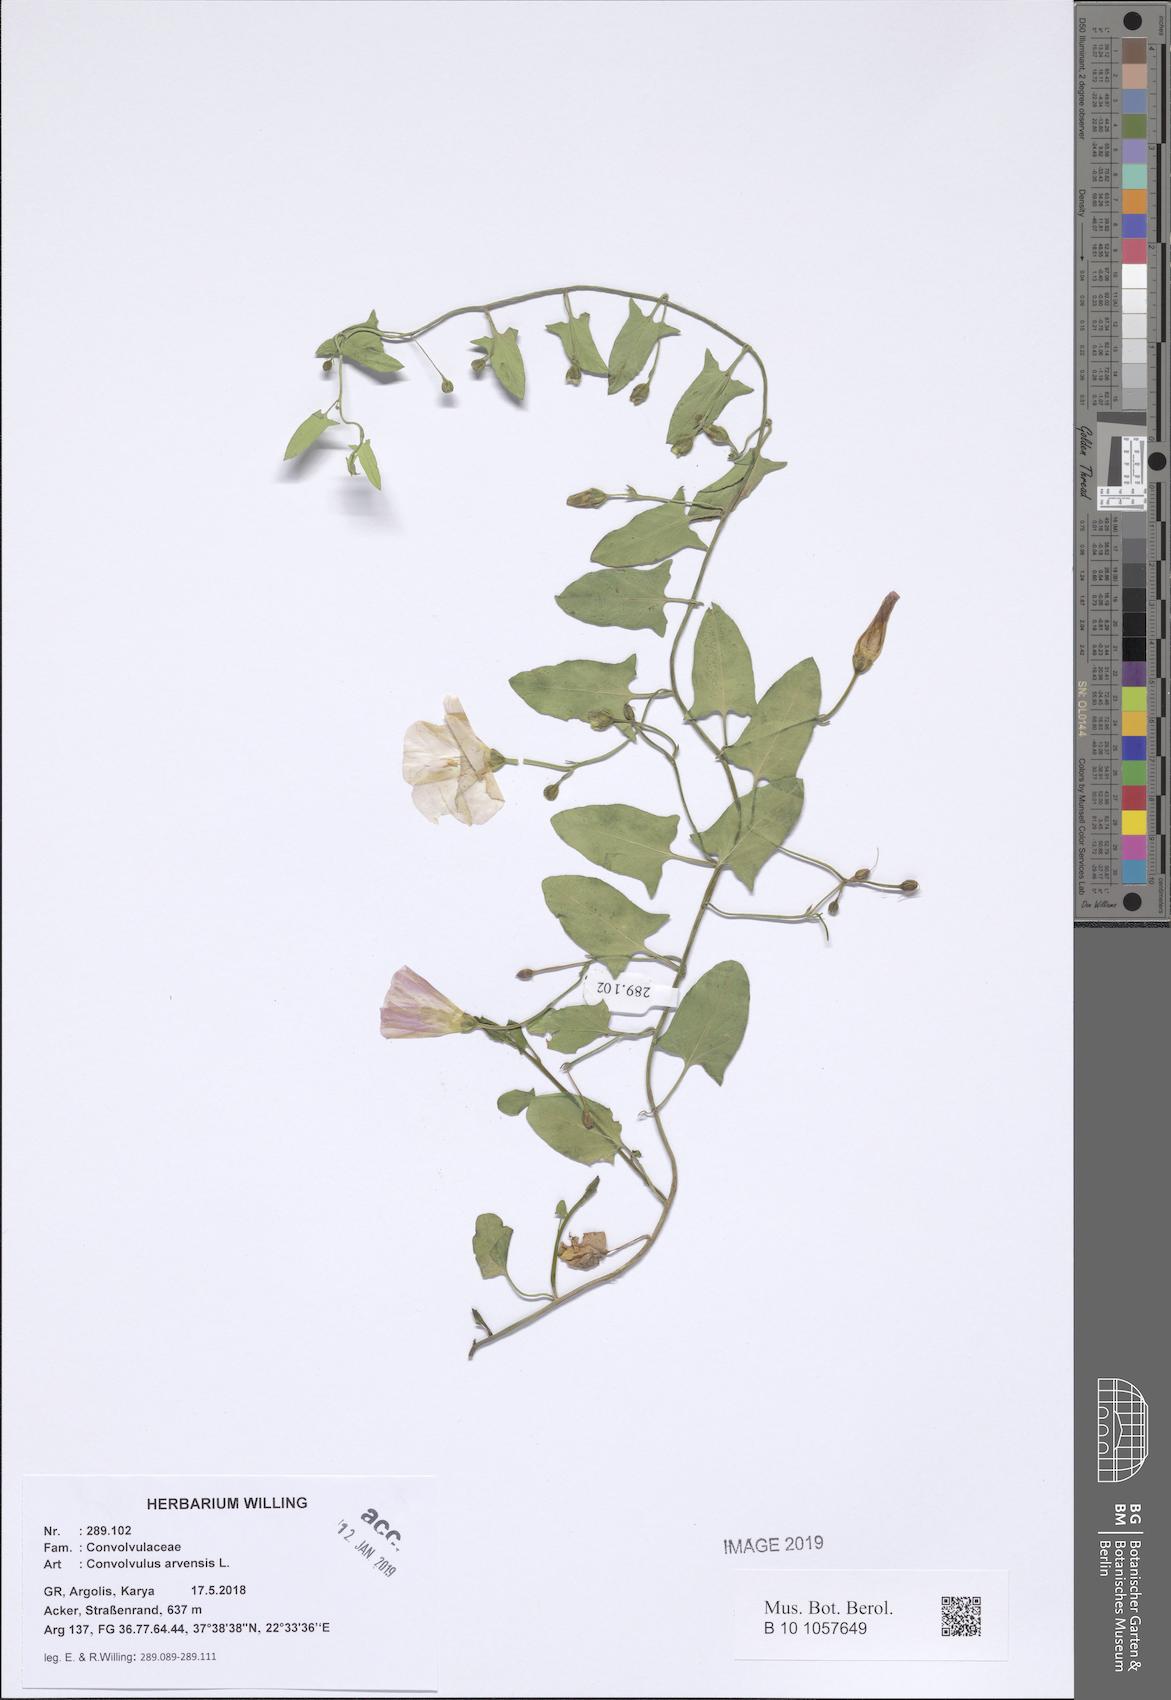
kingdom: Plantae
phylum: Tracheophyta
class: Magnoliopsida
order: Solanales
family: Convolvulaceae
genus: Convolvulus
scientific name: Convolvulus arvensis
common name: Field bindweed
